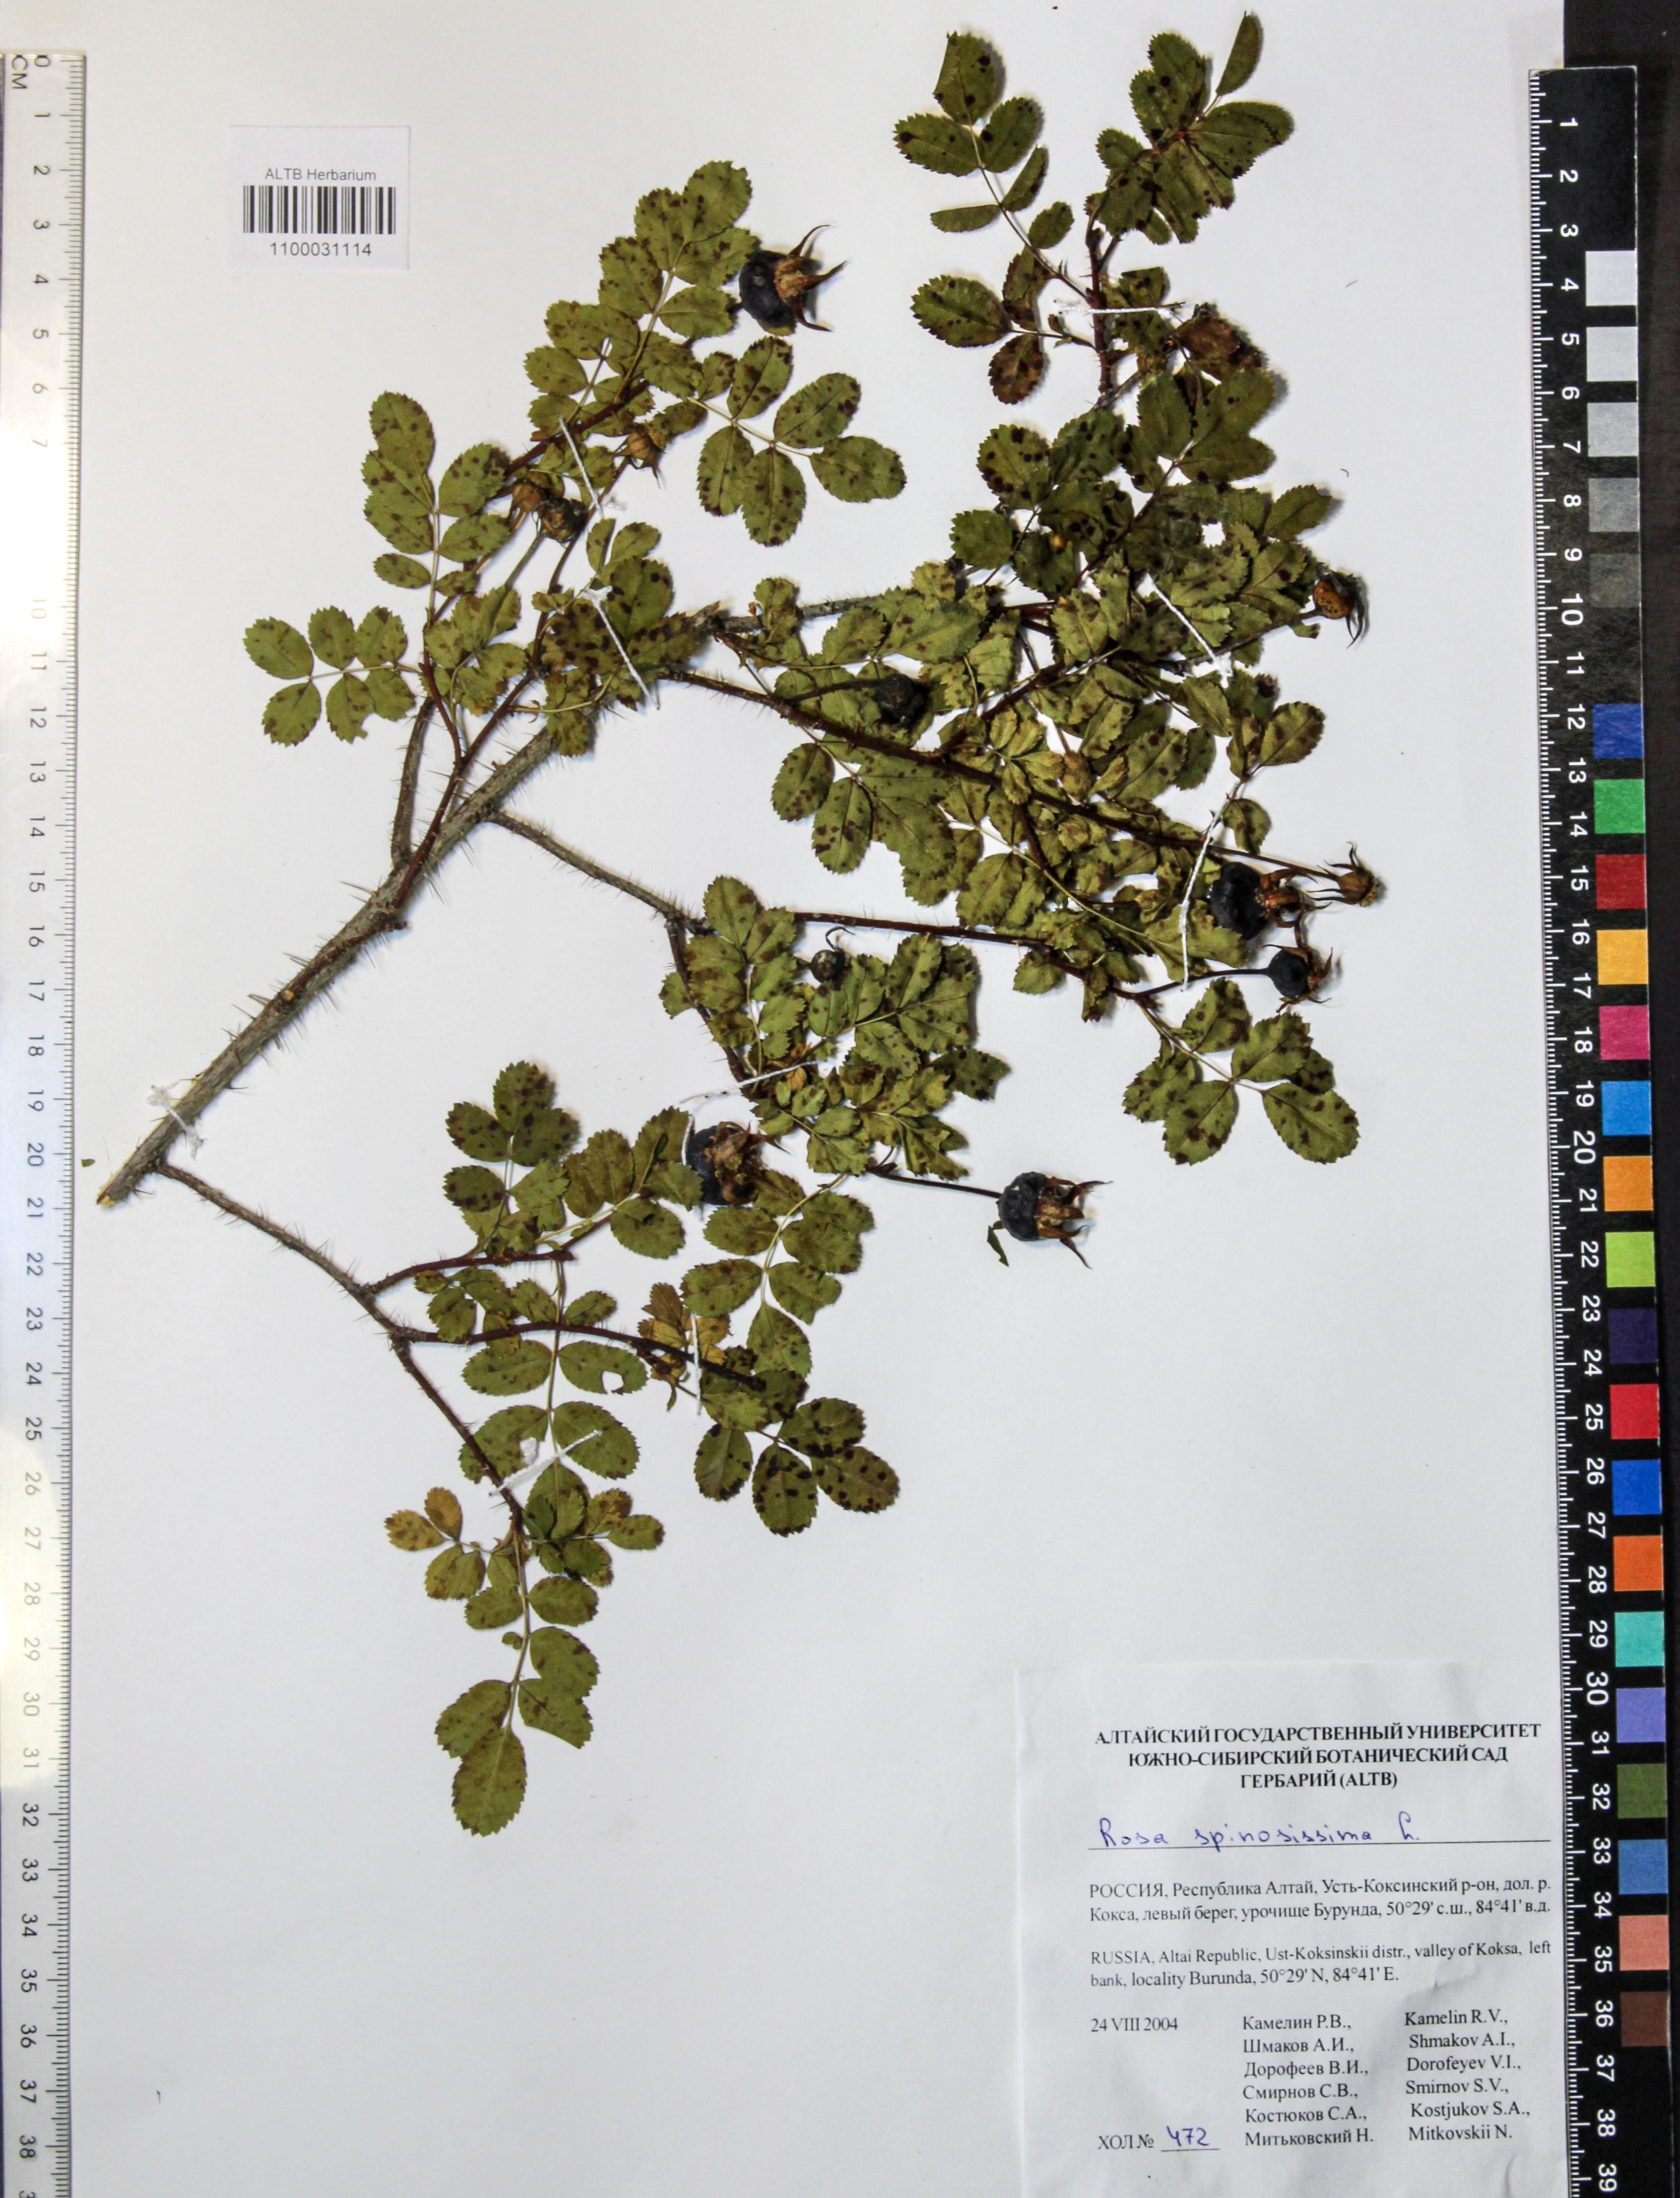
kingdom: Plantae
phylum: Tracheophyta
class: Magnoliopsida
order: Rosales
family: Rosaceae
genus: Rosa
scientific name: Rosa spinosissima
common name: Burnet rose
